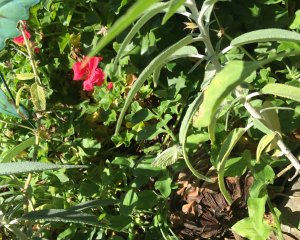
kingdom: Animalia
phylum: Arthropoda
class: Insecta
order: Lepidoptera
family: Pieridae
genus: Pieris
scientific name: Pieris rapae
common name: Cabbage White
